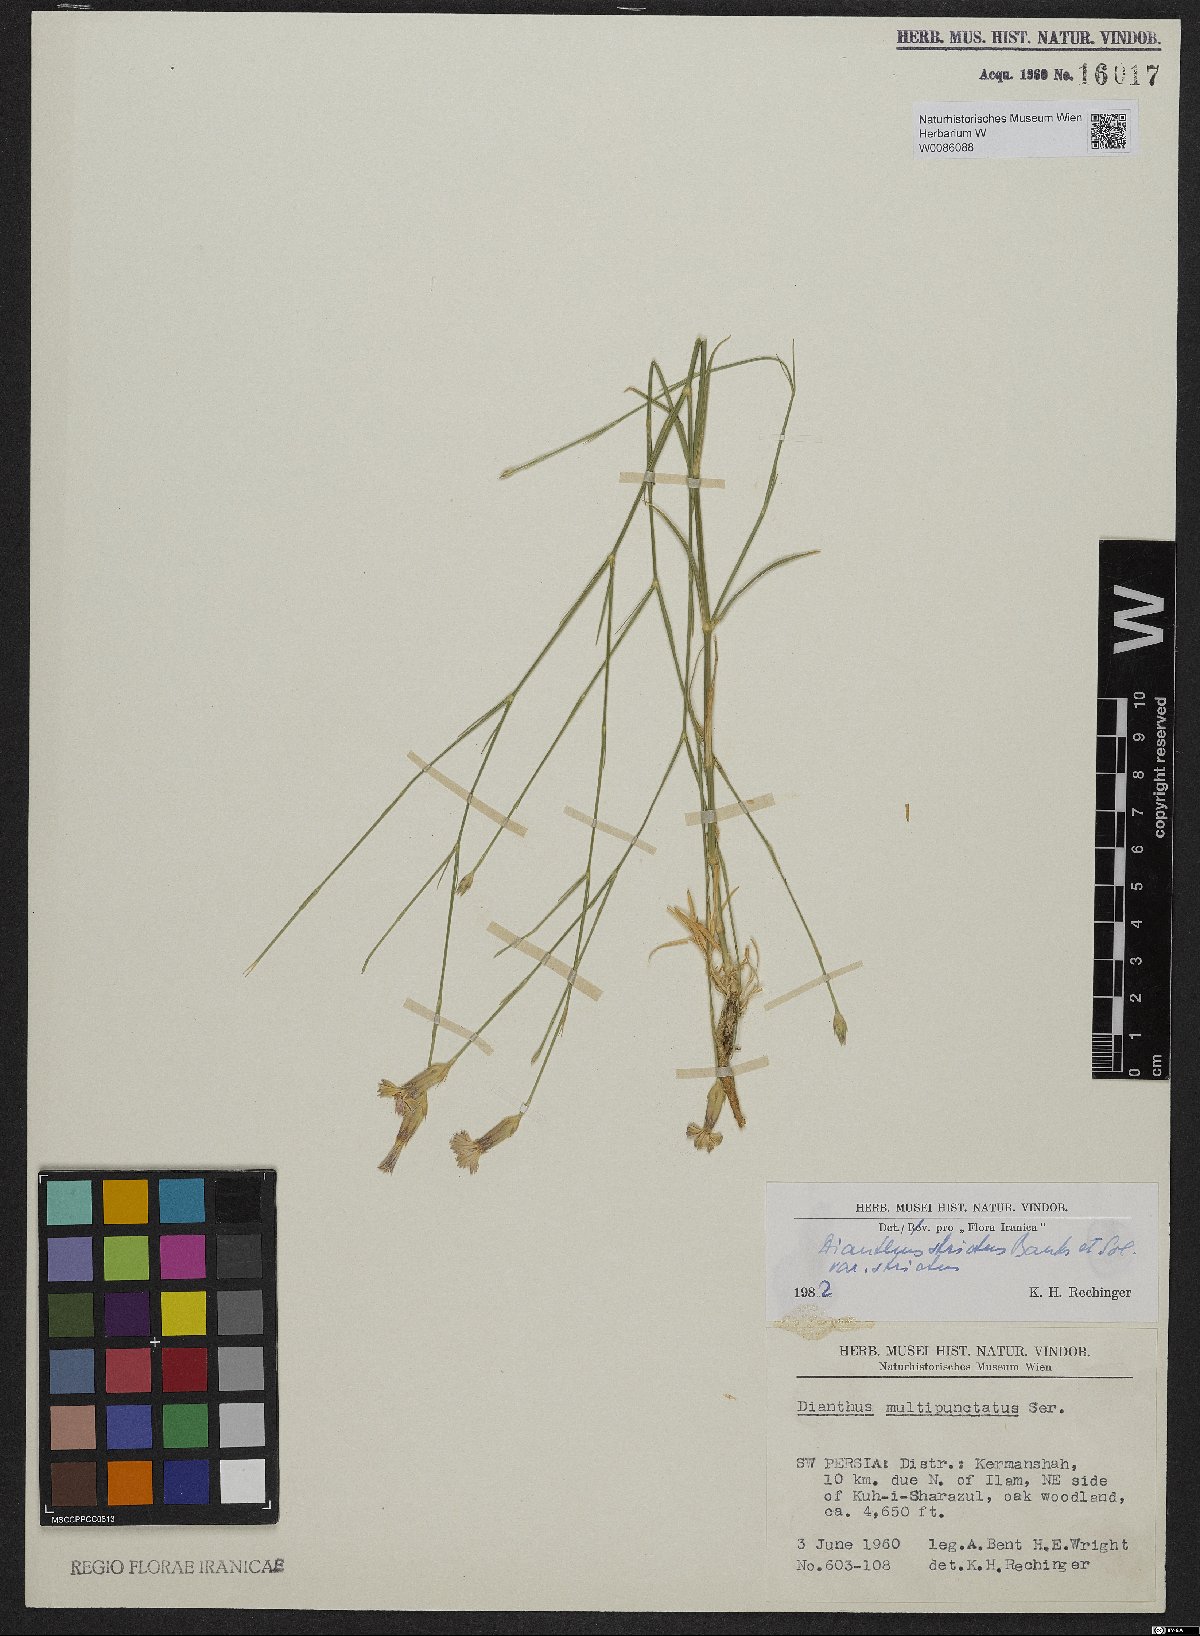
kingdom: Plantae
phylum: Tracheophyta
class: Magnoliopsida
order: Caryophyllales
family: Caryophyllaceae
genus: Dianthus
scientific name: Dianthus strictus
